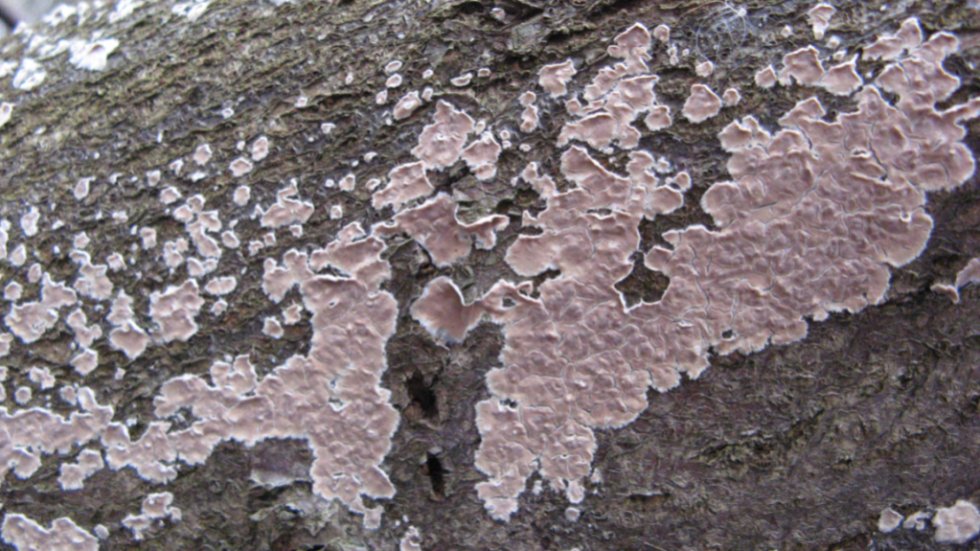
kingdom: Fungi
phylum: Basidiomycota
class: Agaricomycetes
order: Agaricales
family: Physalacriaceae
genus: Cylindrobasidium
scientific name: Cylindrobasidium evolvens
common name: sprækkehinde
